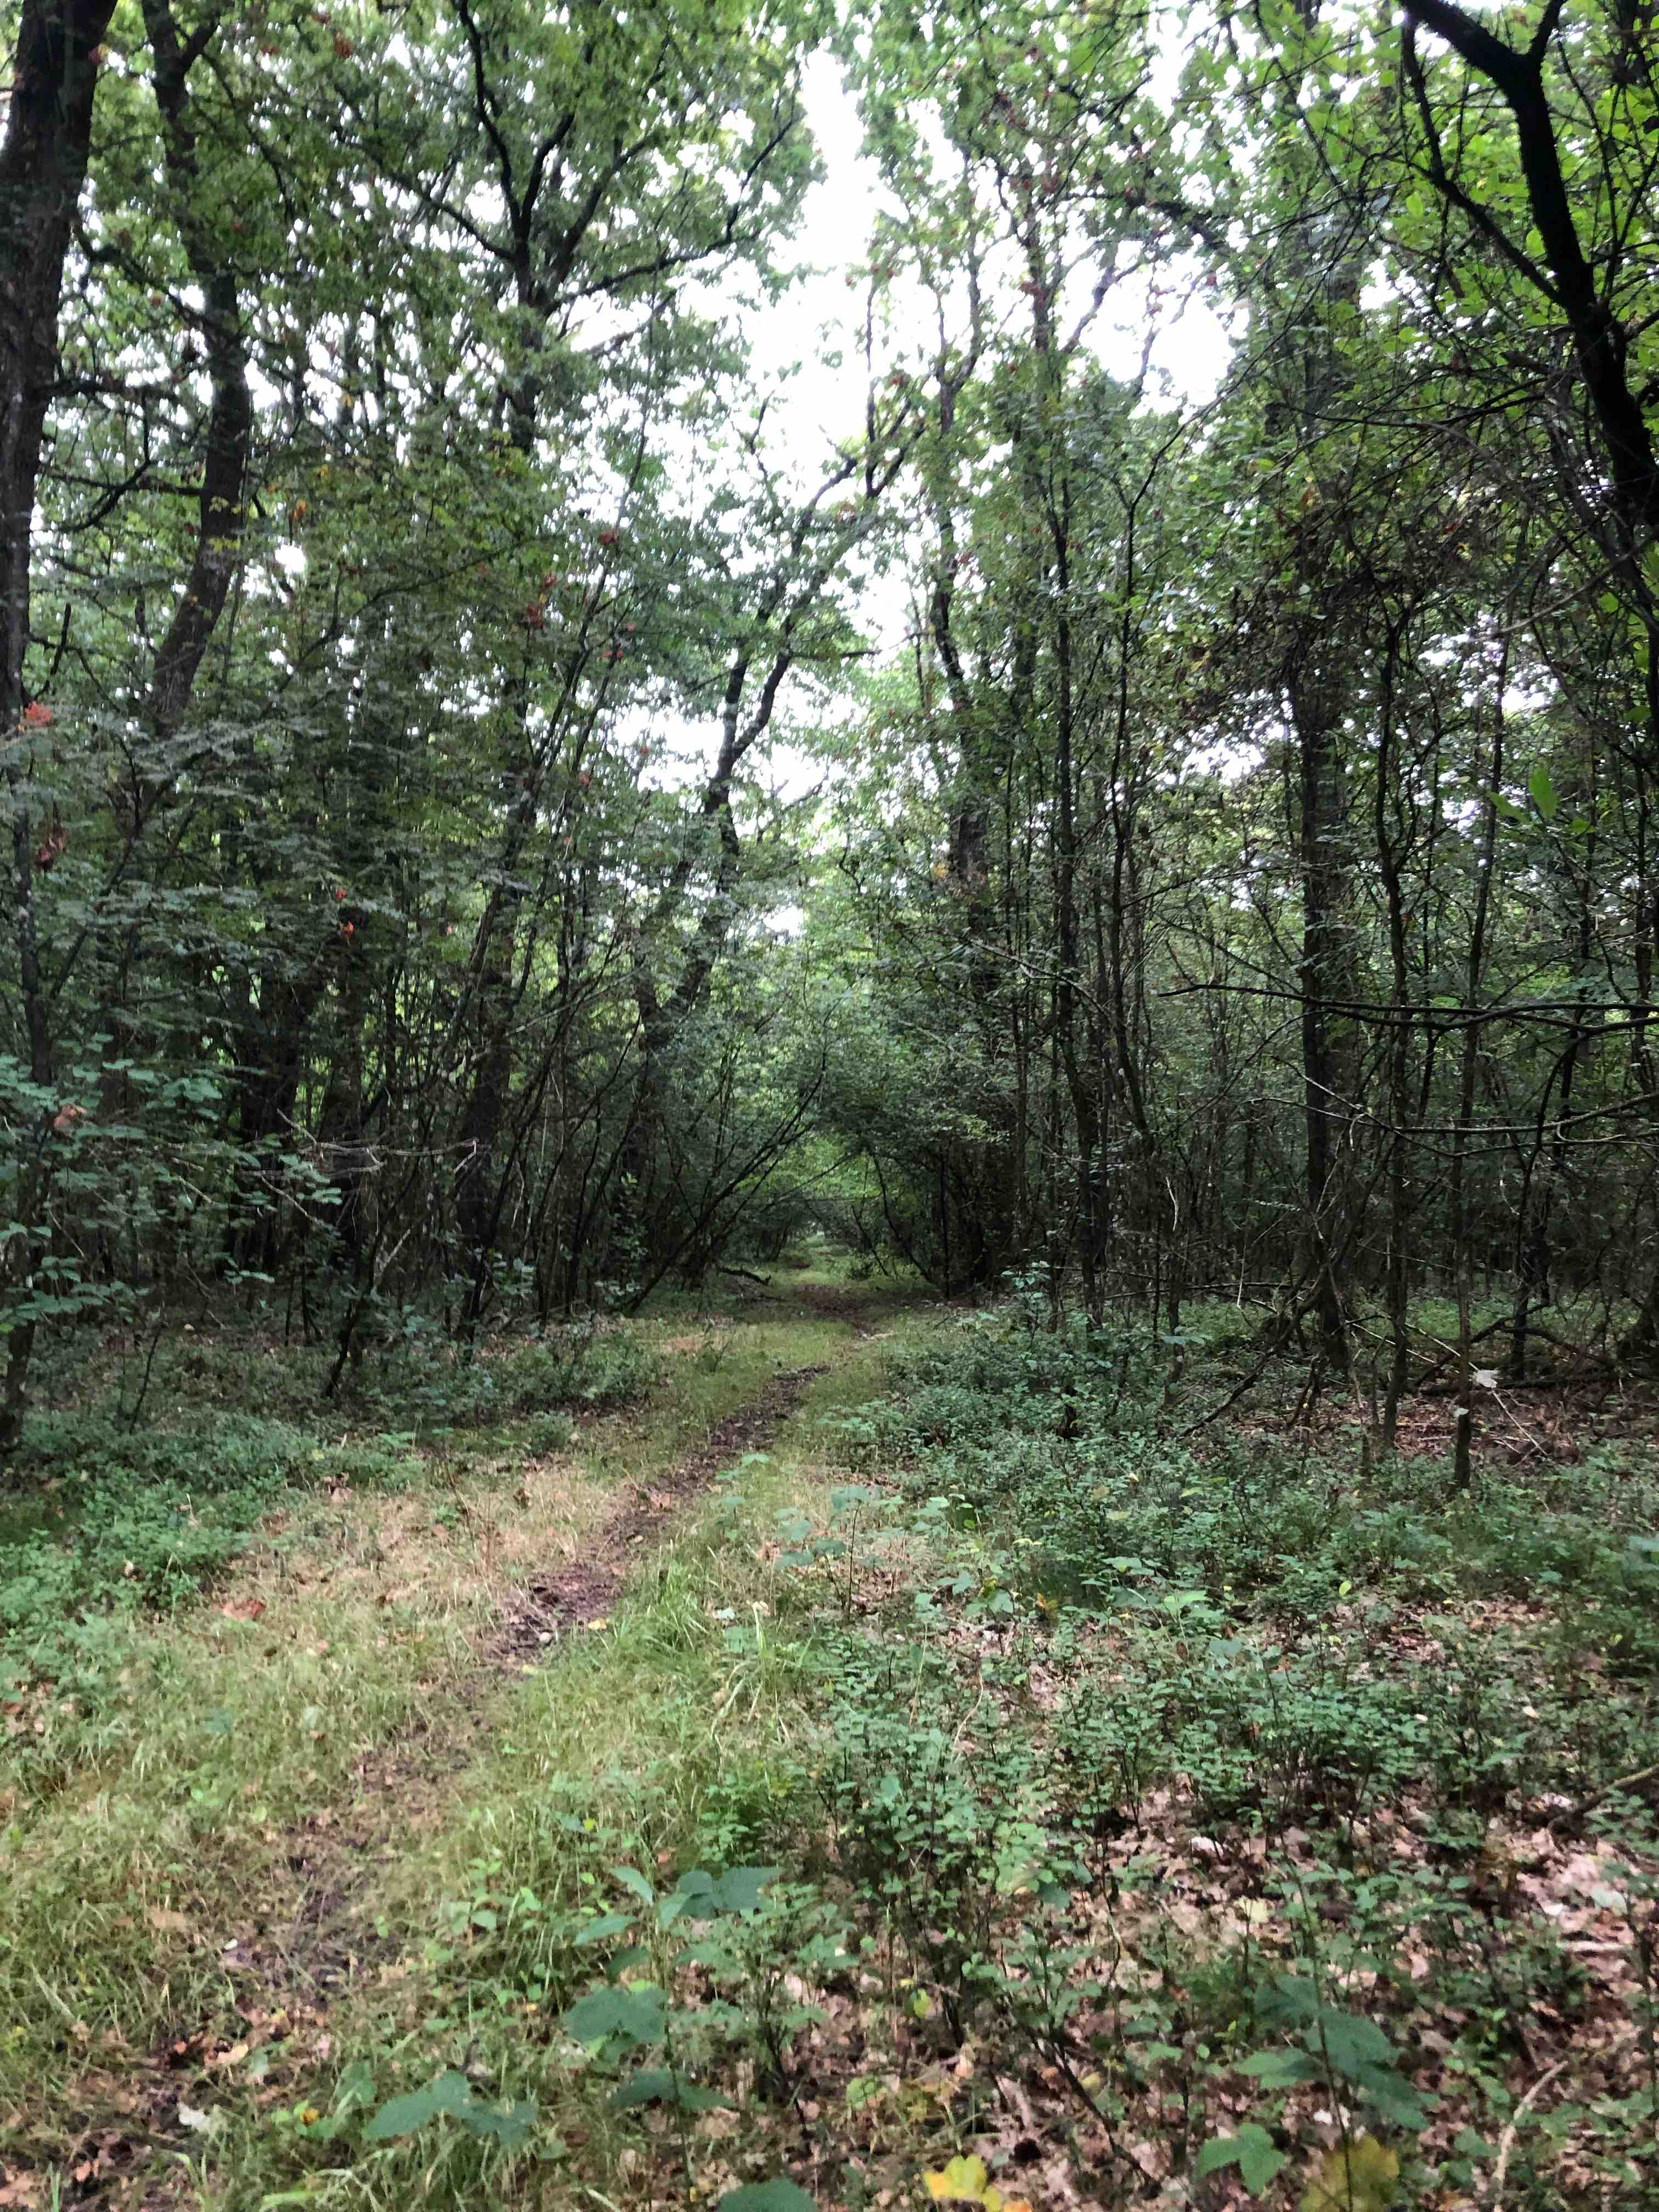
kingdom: Fungi
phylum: Basidiomycota
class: Agaricomycetes
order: Russulales
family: Russulaceae
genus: Russula
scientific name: Russula heterophylla
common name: gaffelbladet skørhat
